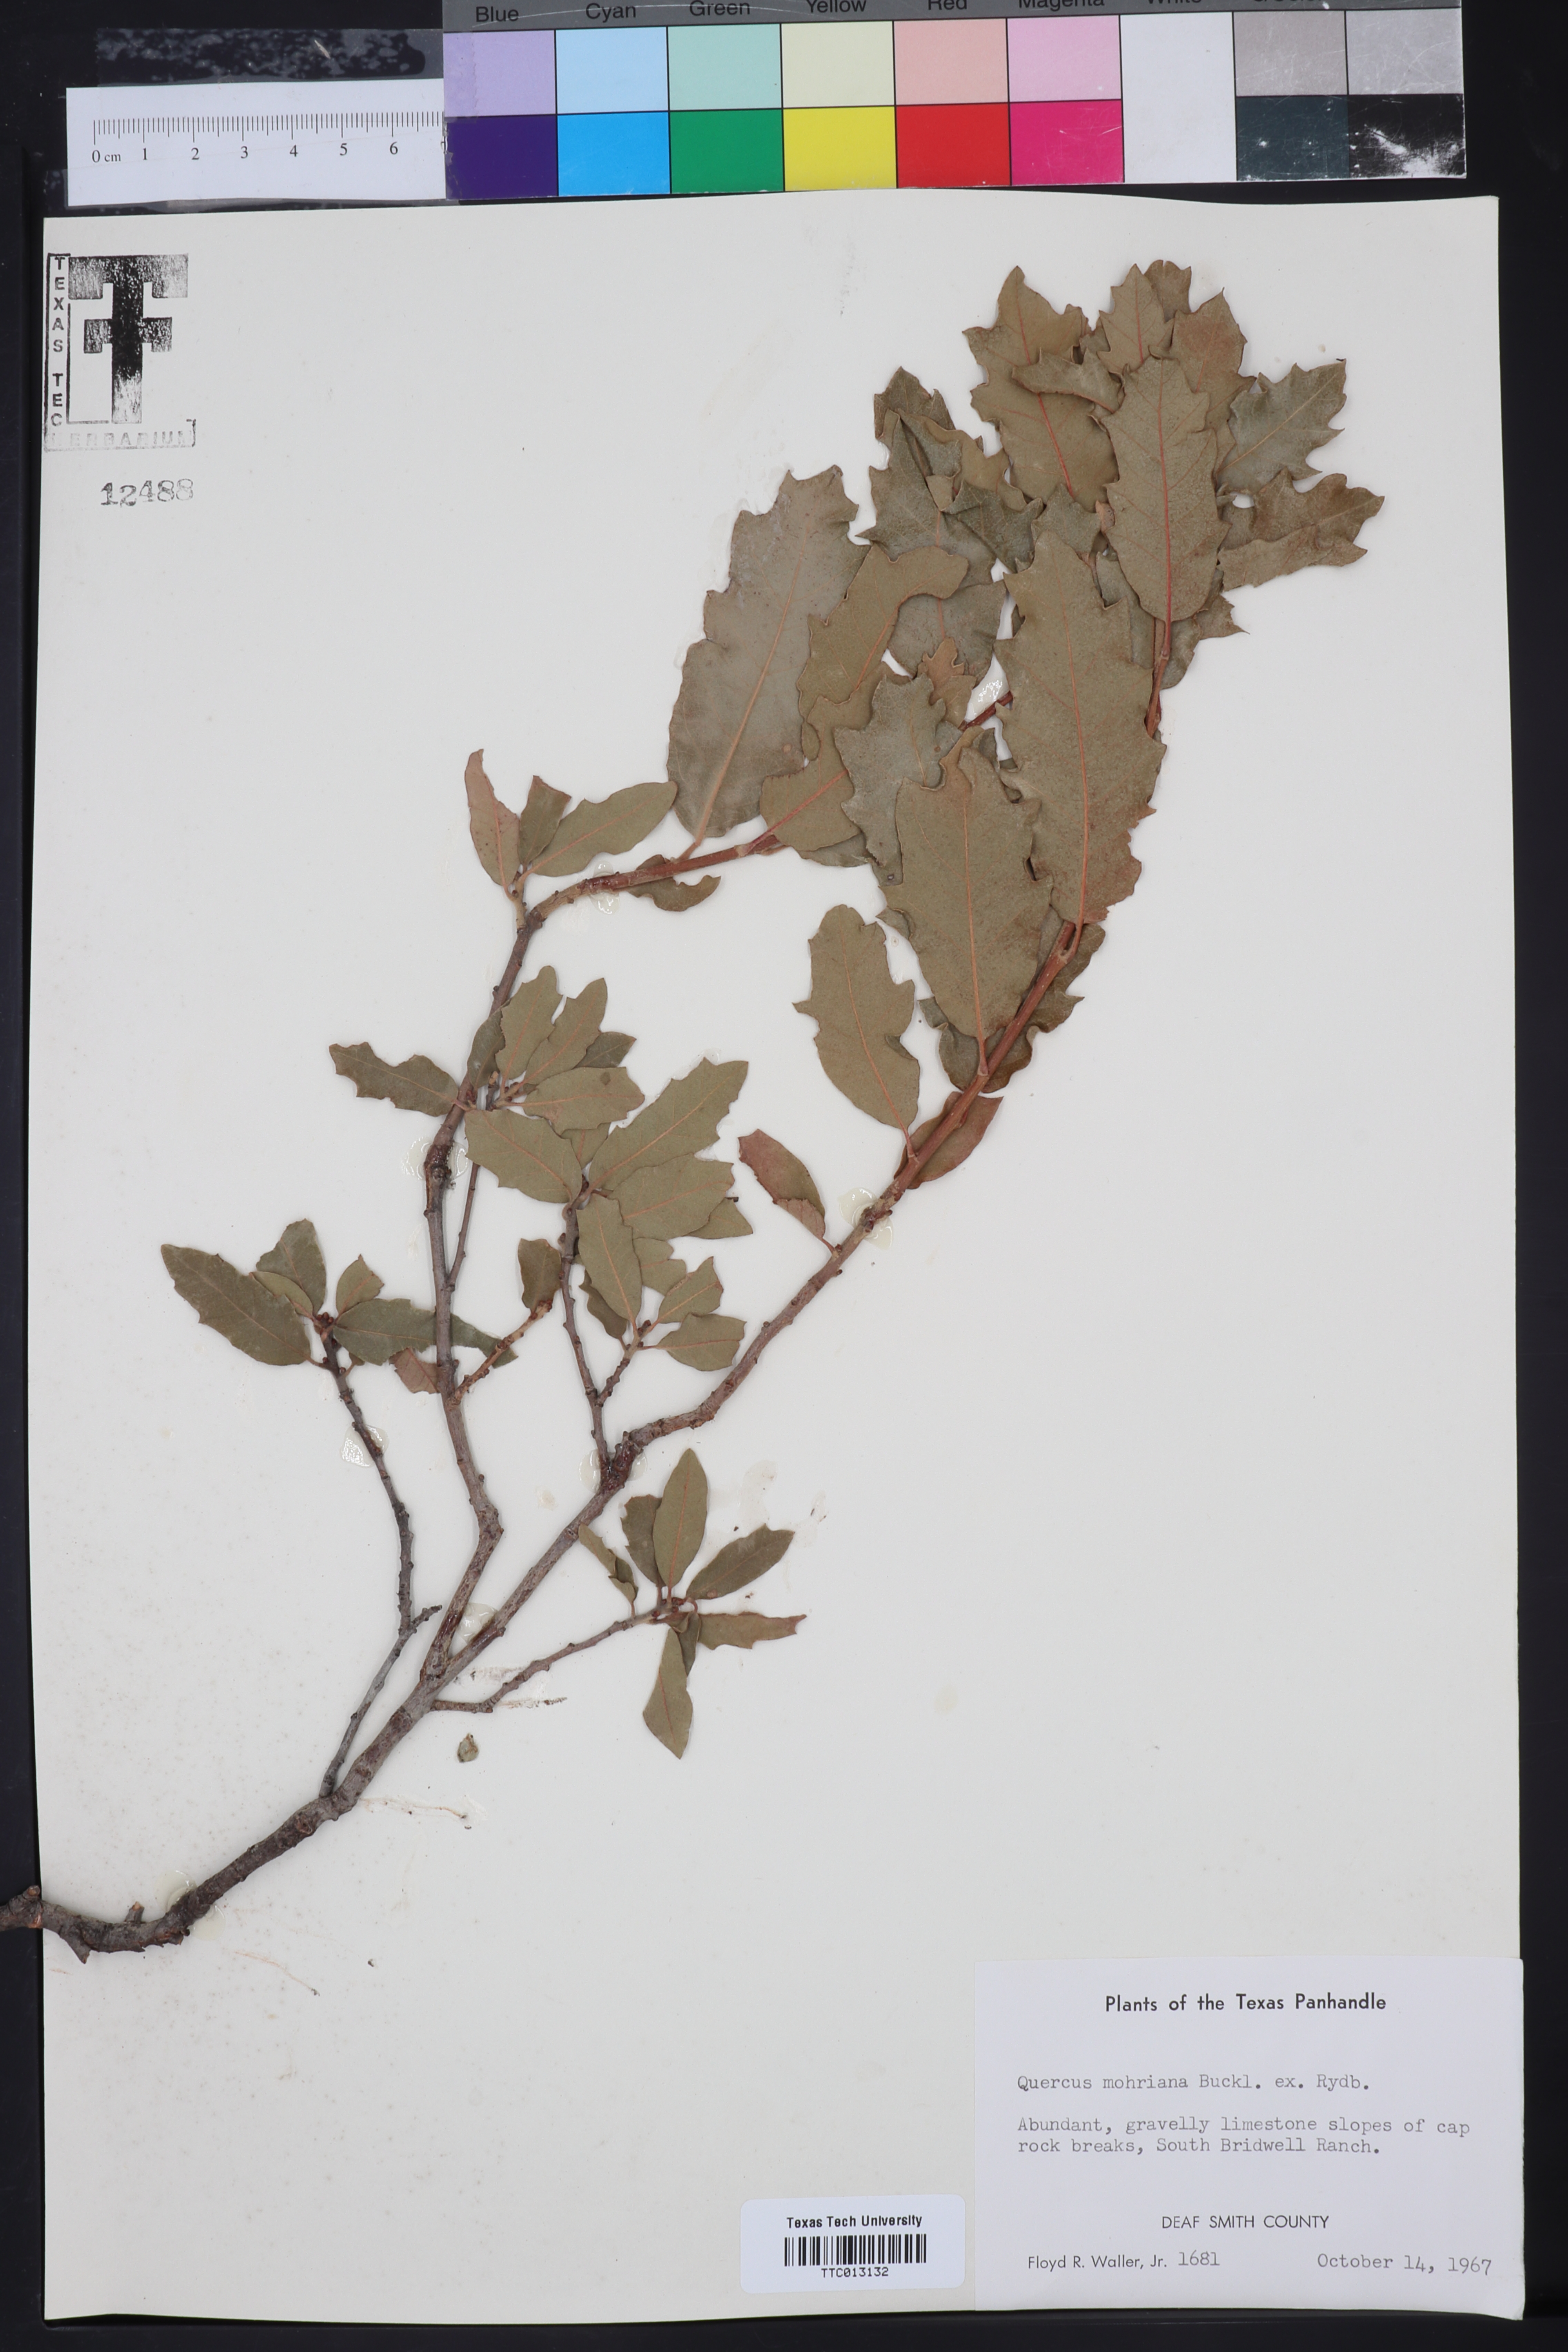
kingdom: Plantae
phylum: Tracheophyta
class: Magnoliopsida
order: Fagales
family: Fagaceae
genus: Quercus
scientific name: Quercus mohriana
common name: Mohr oak
